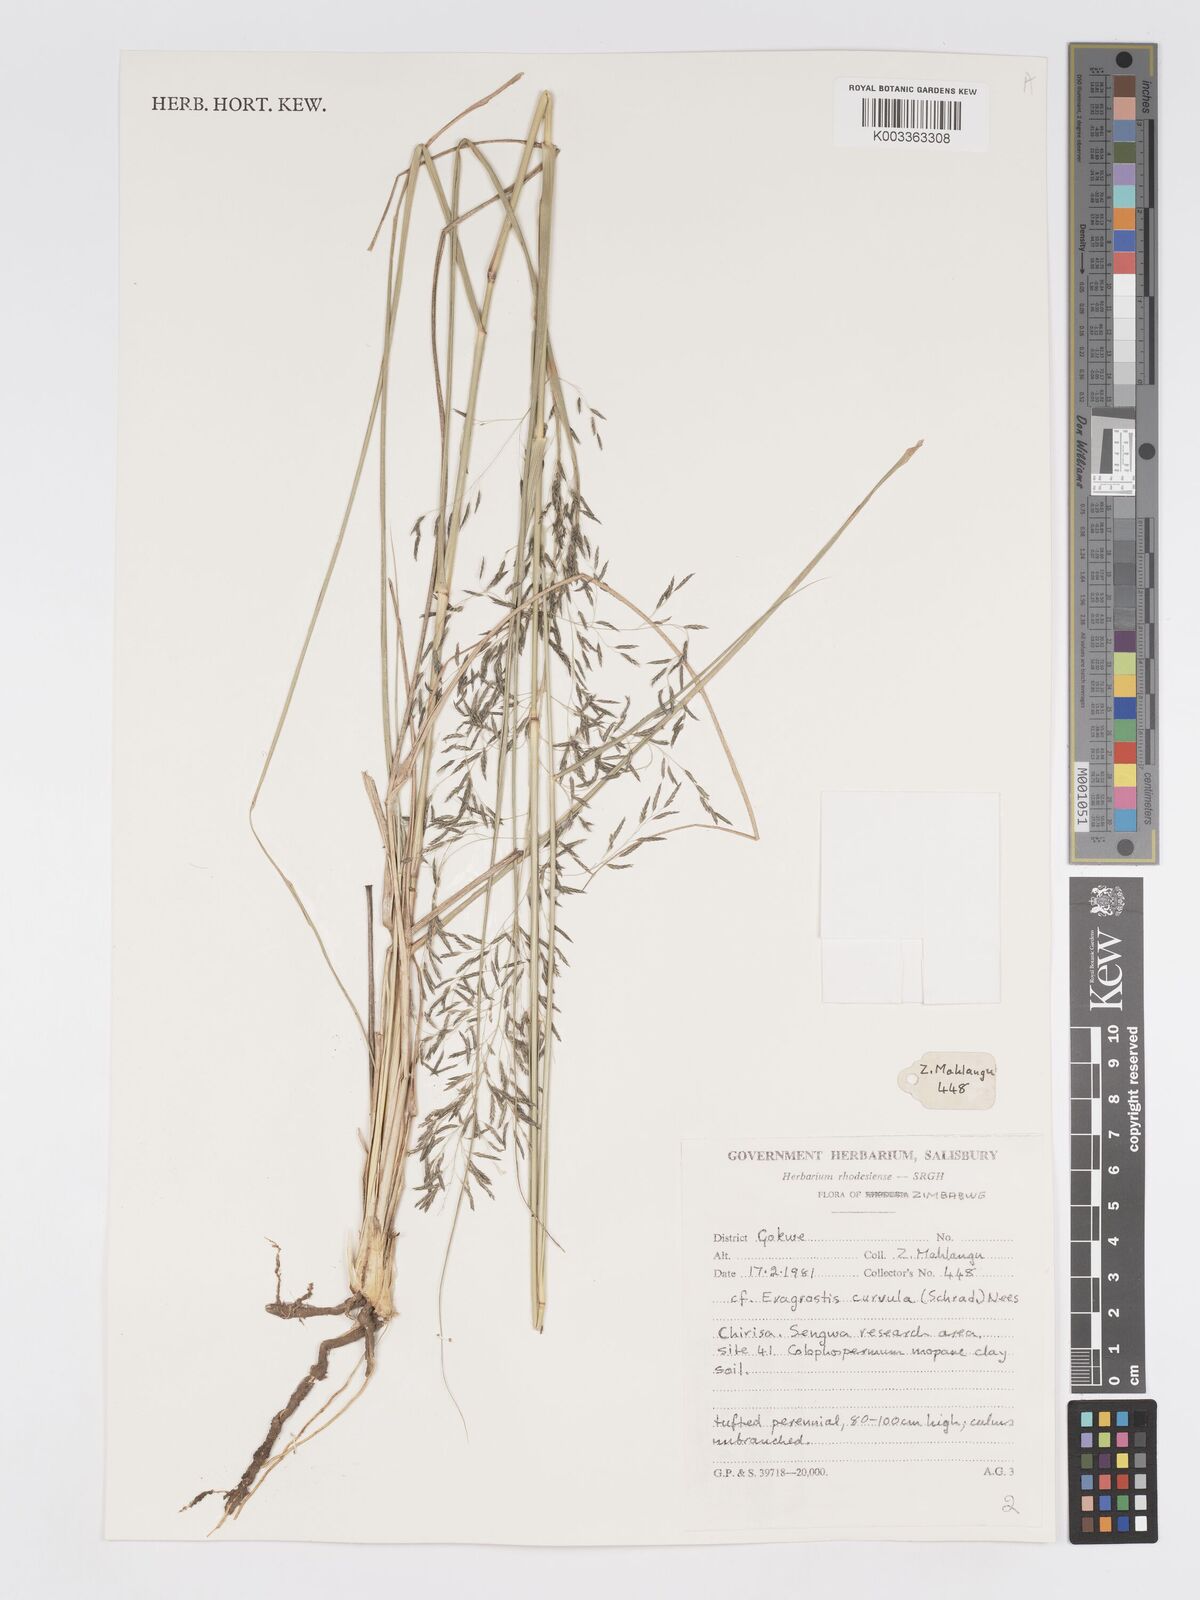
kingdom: Plantae
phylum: Tracheophyta
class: Liliopsida
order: Poales
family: Poaceae
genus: Eragrostis
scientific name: Eragrostis curvula
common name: African love-grass
